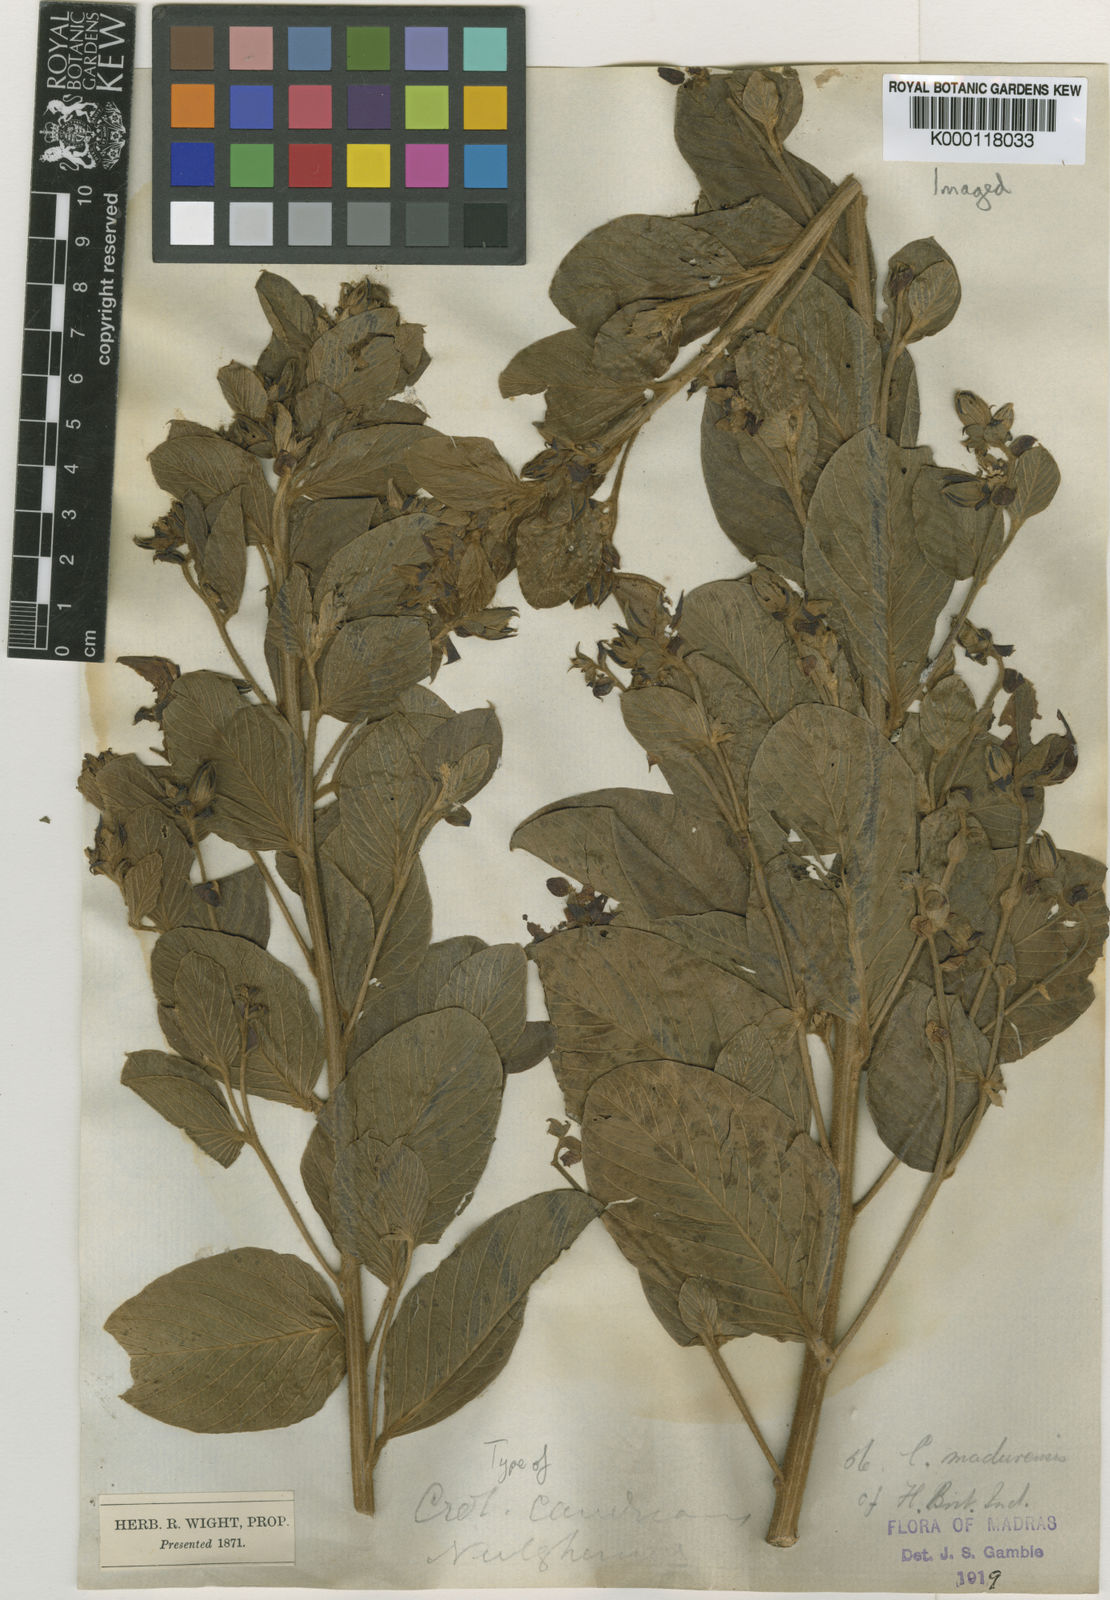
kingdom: Plantae
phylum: Tracheophyta
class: Magnoliopsida
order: Fabales
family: Fabaceae
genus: Crotalaria
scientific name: Crotalaria candicans
